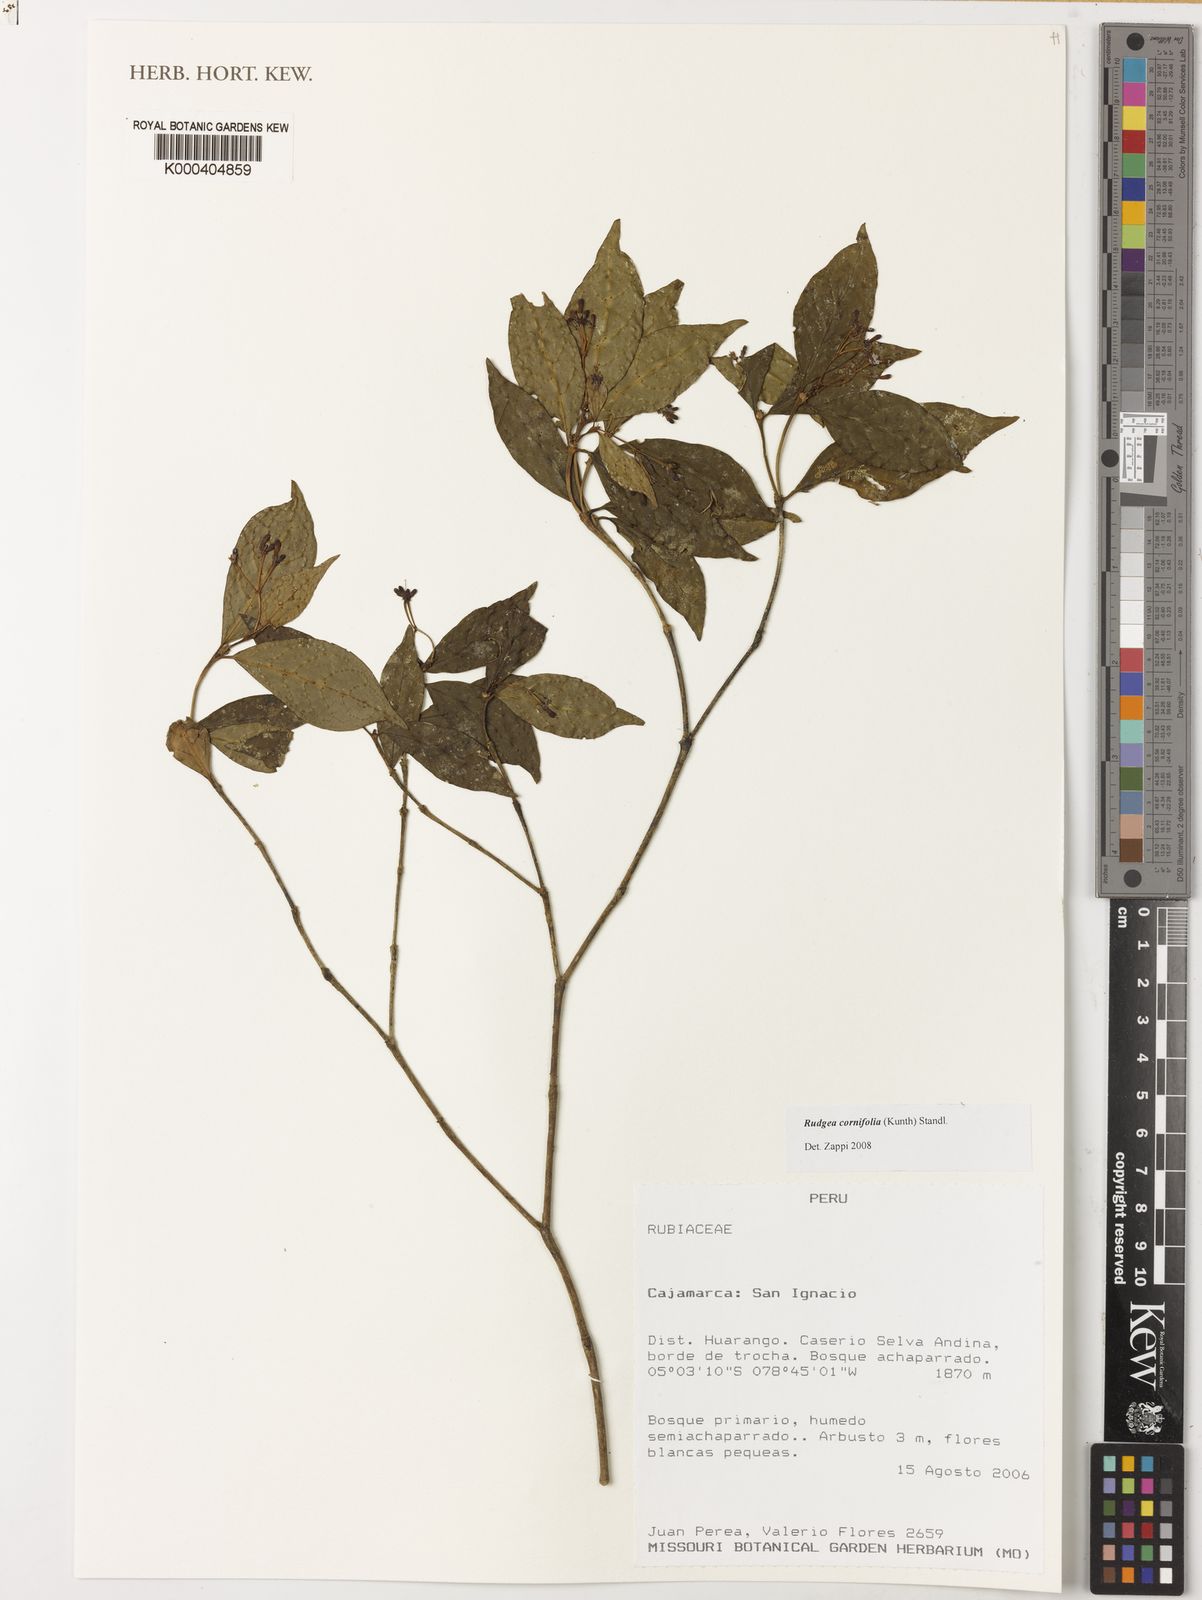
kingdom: Plantae
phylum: Tracheophyta
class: Magnoliopsida
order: Gentianales
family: Rubiaceae
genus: Rudgea
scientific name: Rudgea cornifolia
